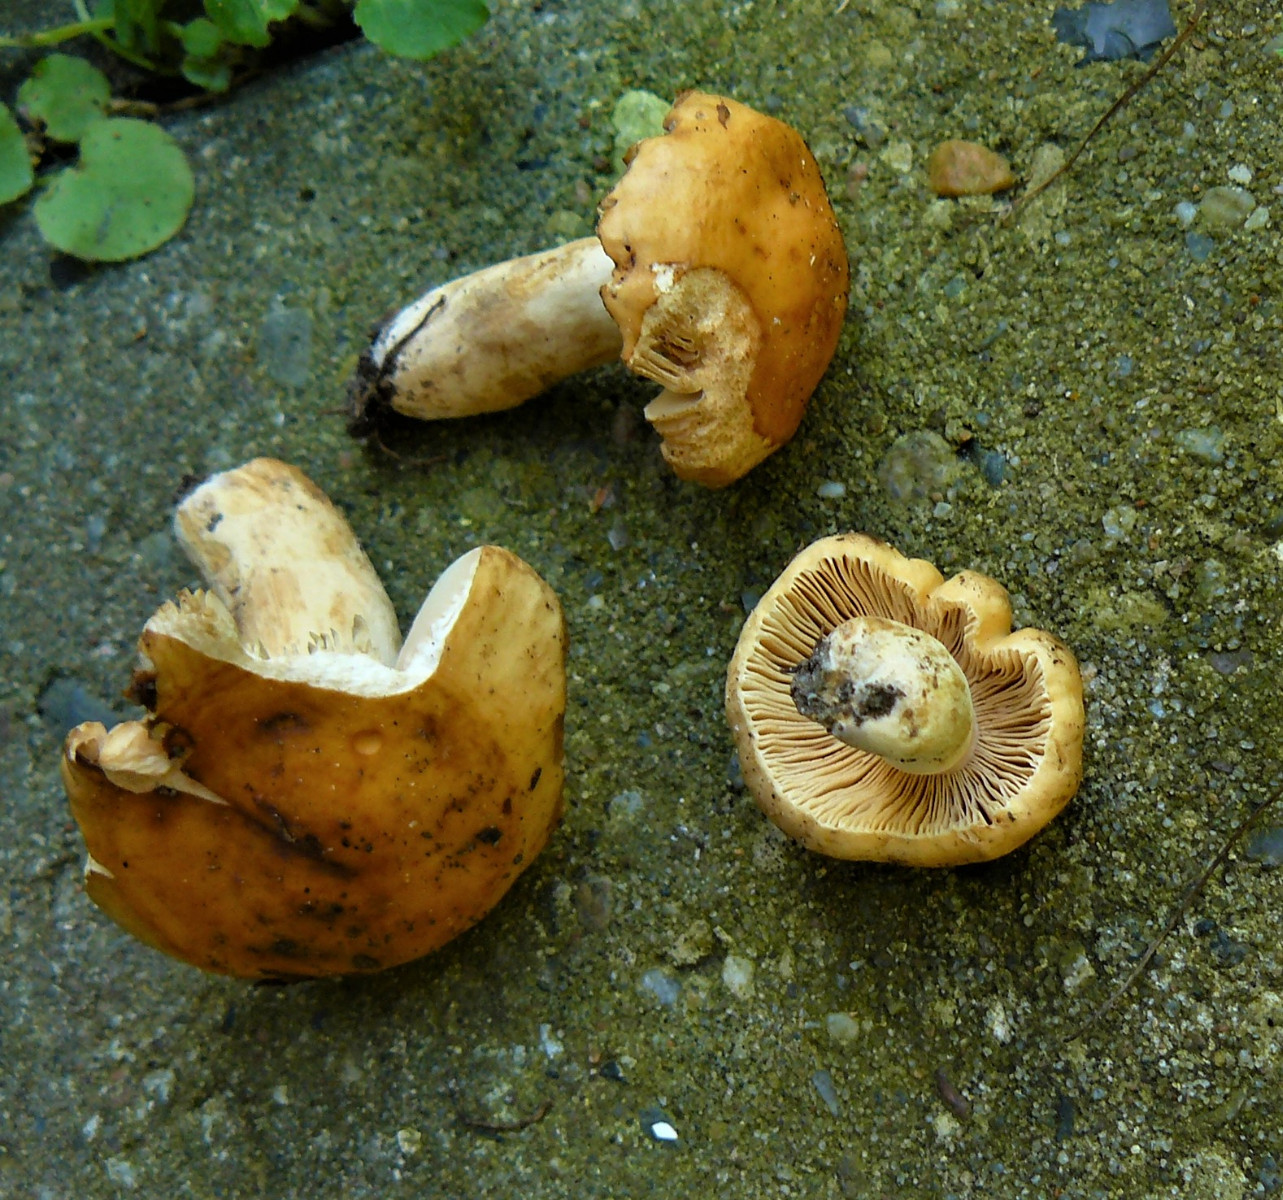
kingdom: Fungi
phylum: Basidiomycota
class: Agaricomycetes
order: Russulales
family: Russulaceae
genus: Russula
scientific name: Russula fellea
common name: galde-skørhat
